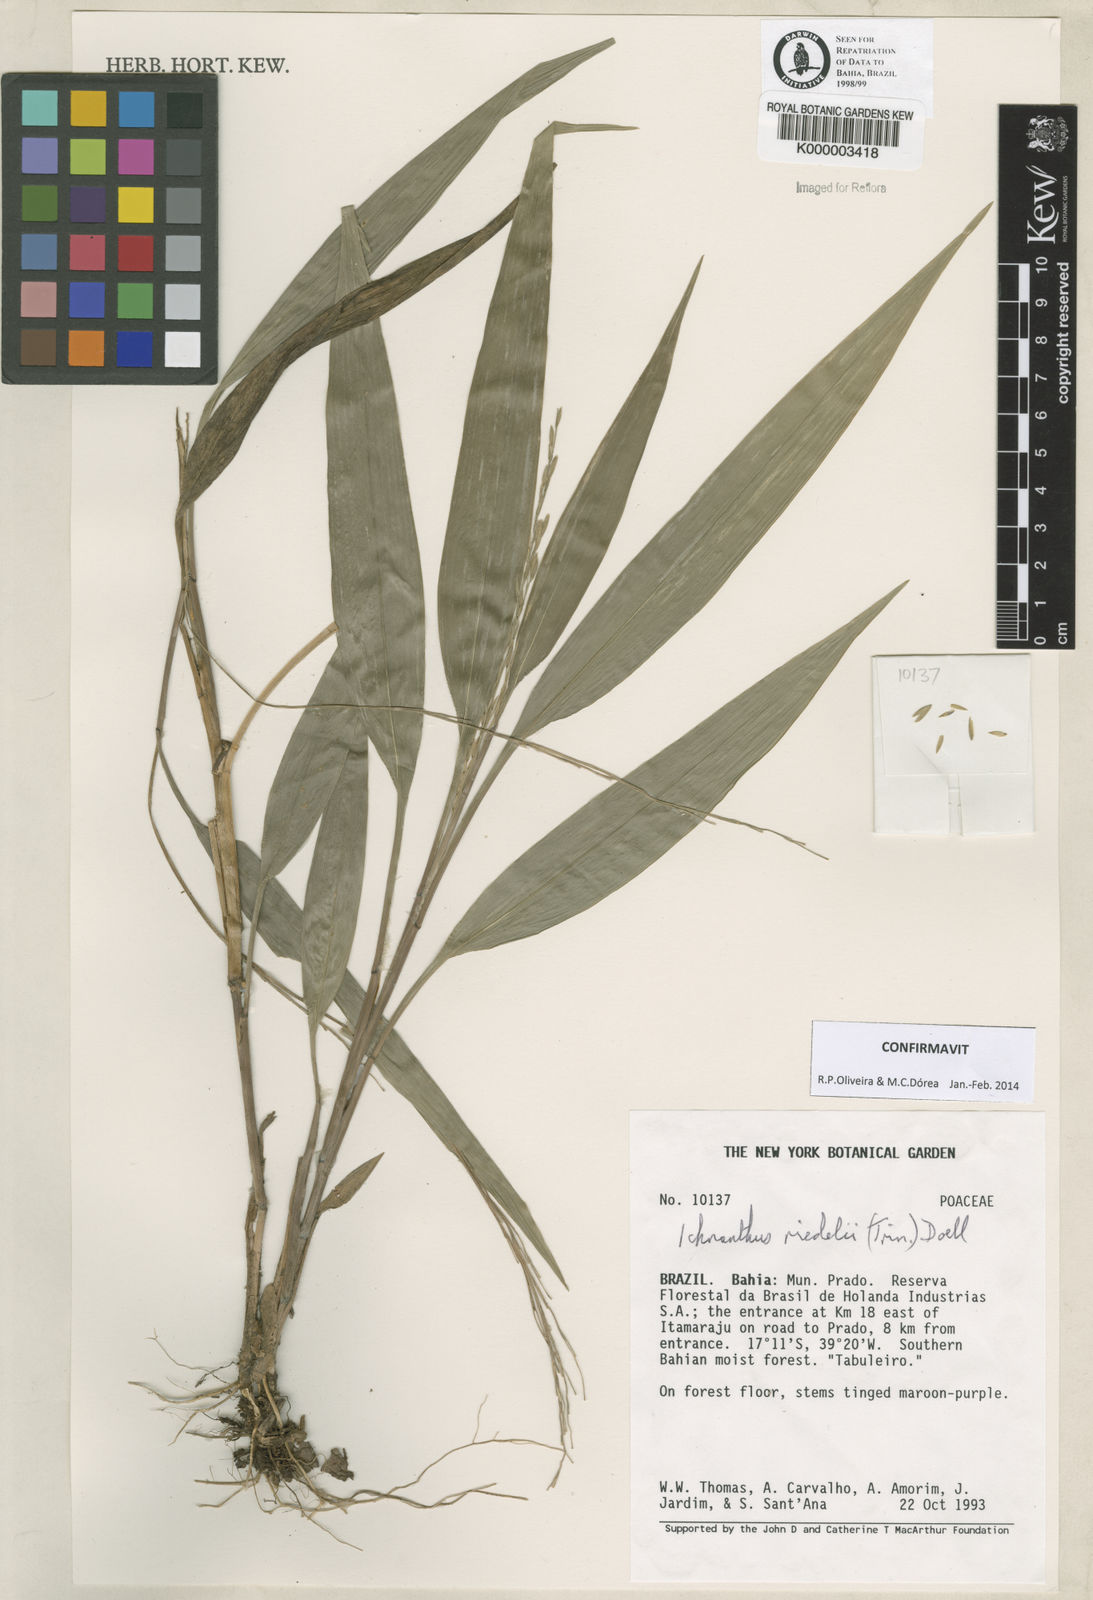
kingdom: Plantae
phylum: Tracheophyta
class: Liliopsida
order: Poales
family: Poaceae
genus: Ichnanthus
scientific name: Ichnanthus
